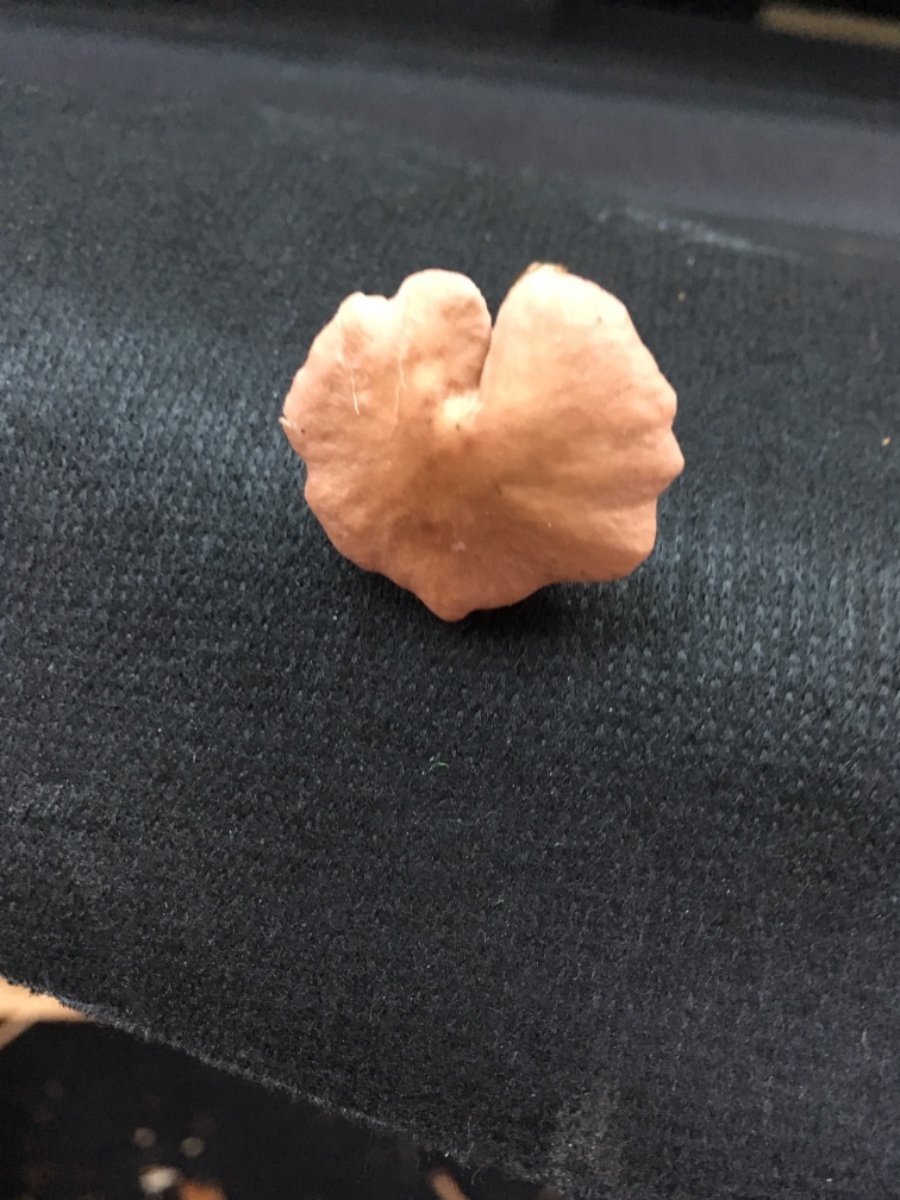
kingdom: Fungi
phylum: Basidiomycota
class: Agaricomycetes
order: Agaricales
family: Lyophyllaceae
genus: Calocybe
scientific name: Calocybe carnea
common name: rosa fagerhat
